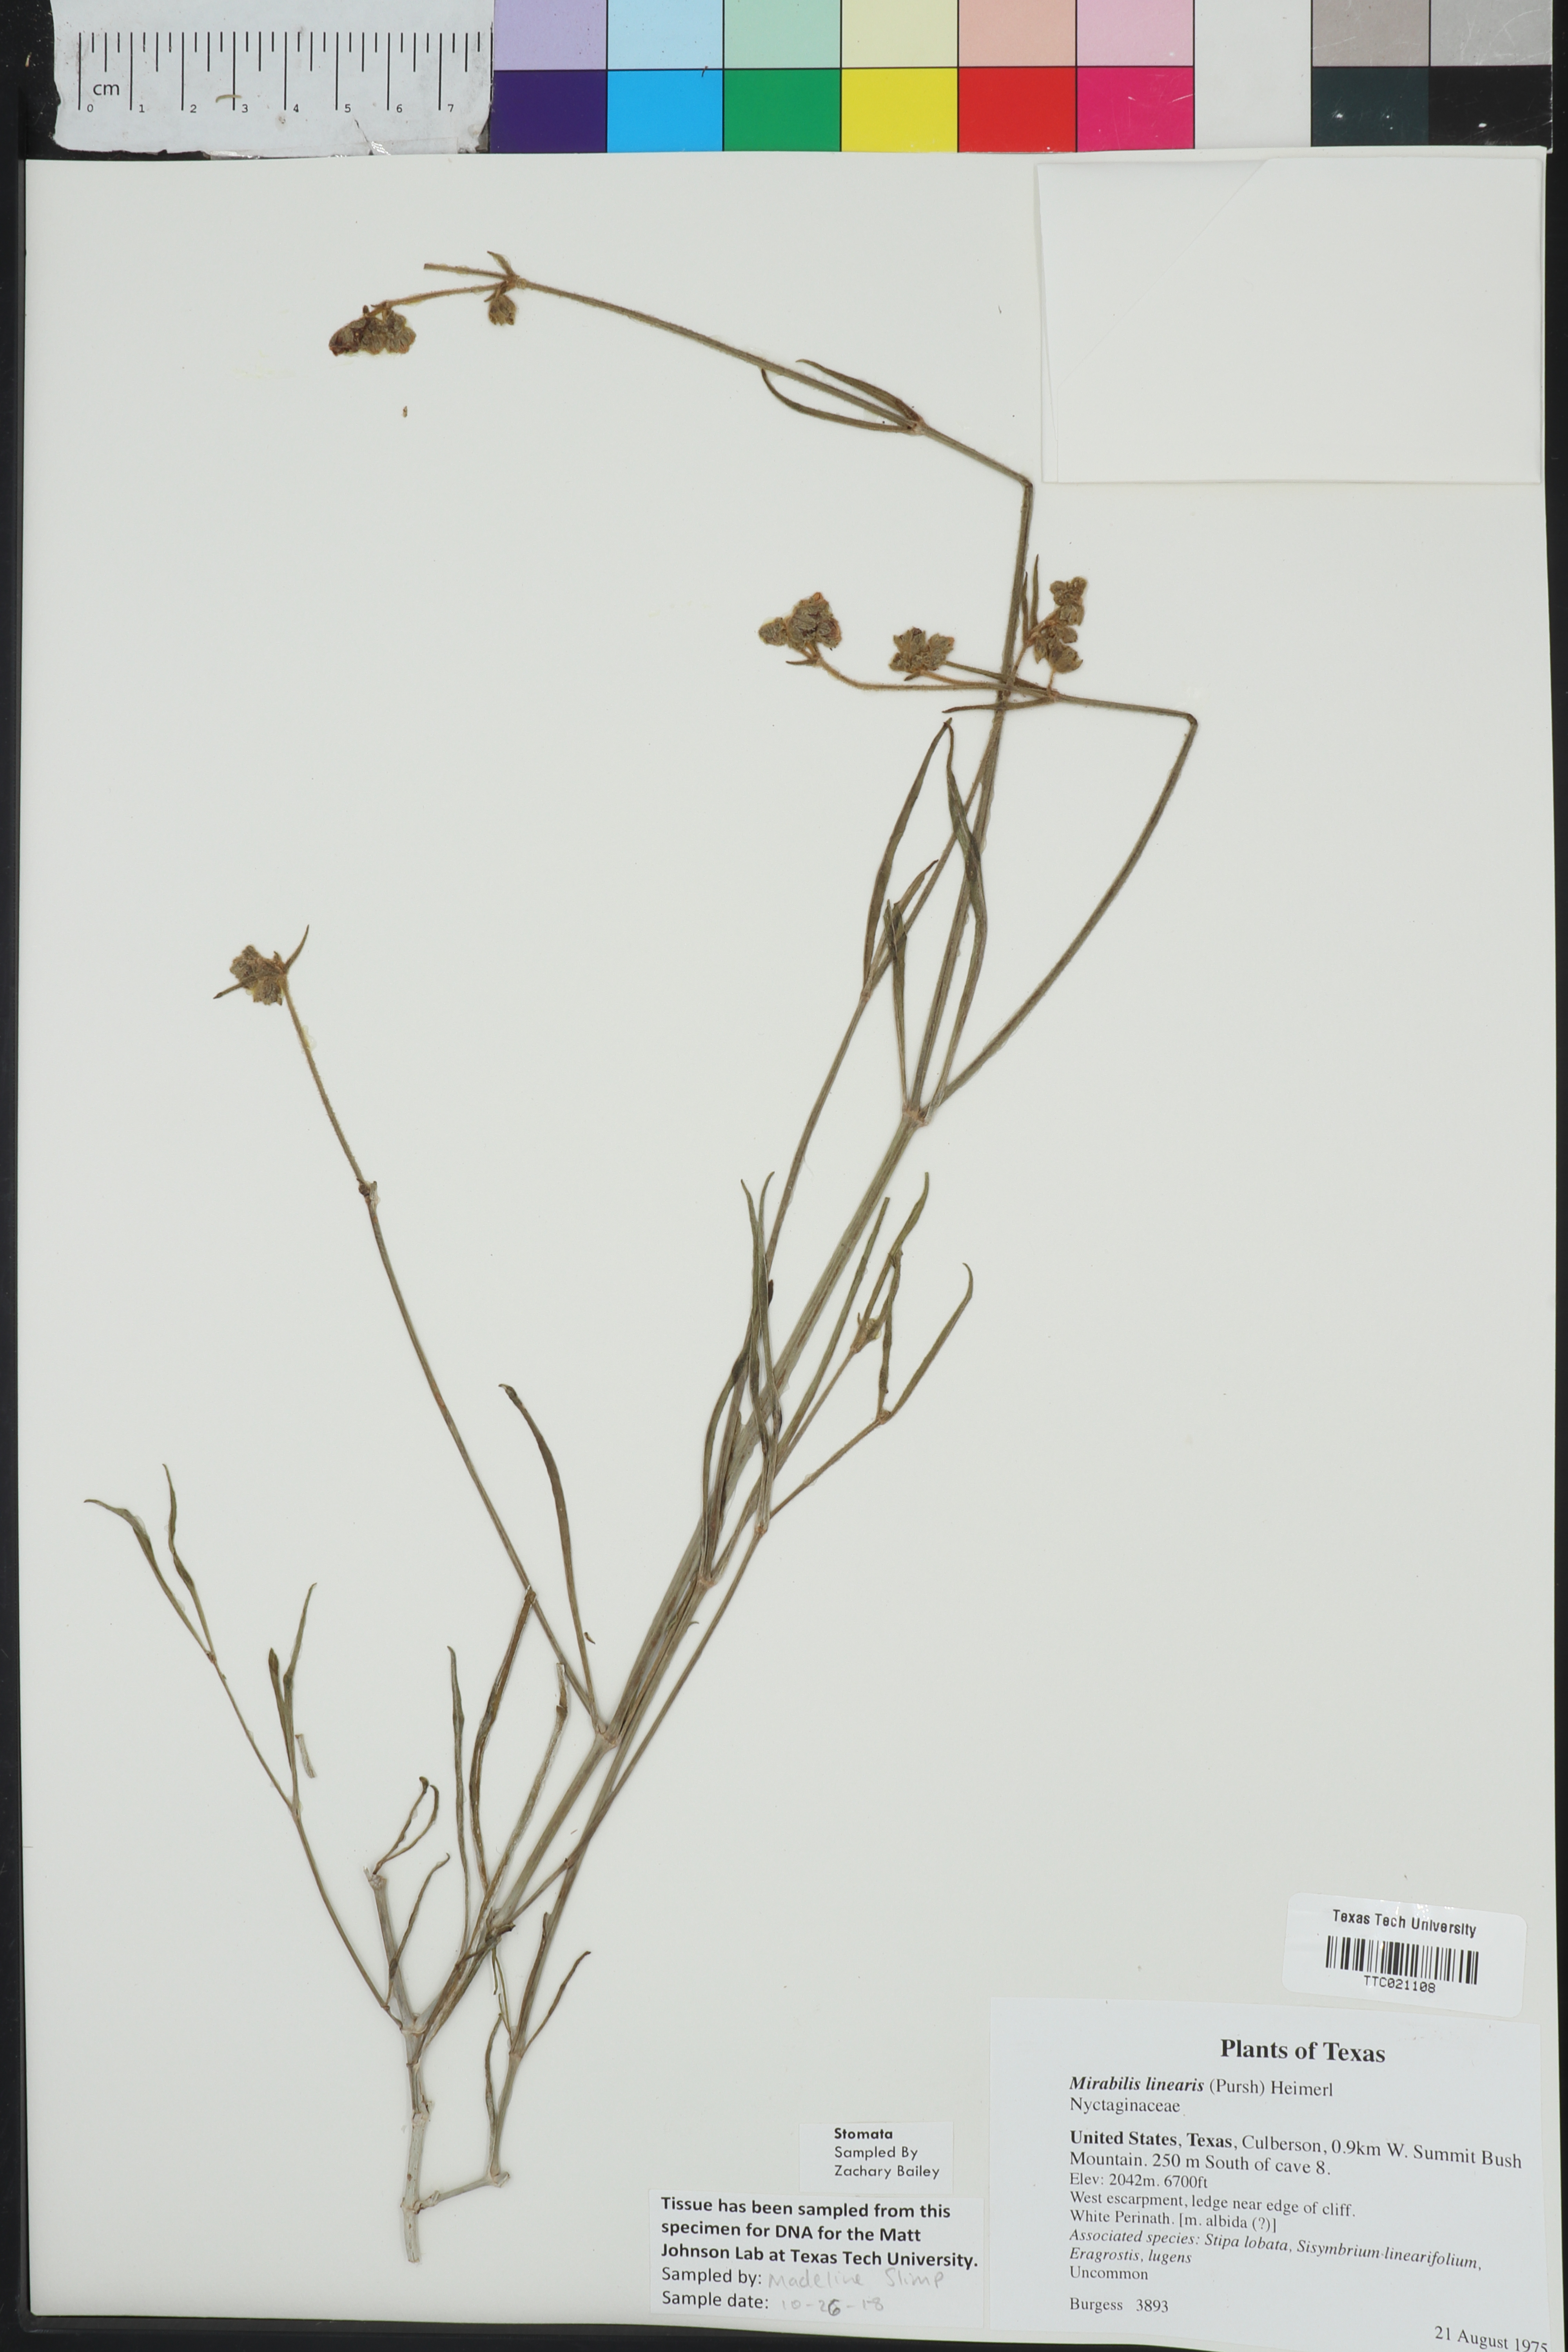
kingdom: Plantae
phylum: Tracheophyta
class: Magnoliopsida
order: Caryophyllales
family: Nyctaginaceae
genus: Mirabilis
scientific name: Mirabilis linearis
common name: Linear-leaved four-o'clock
